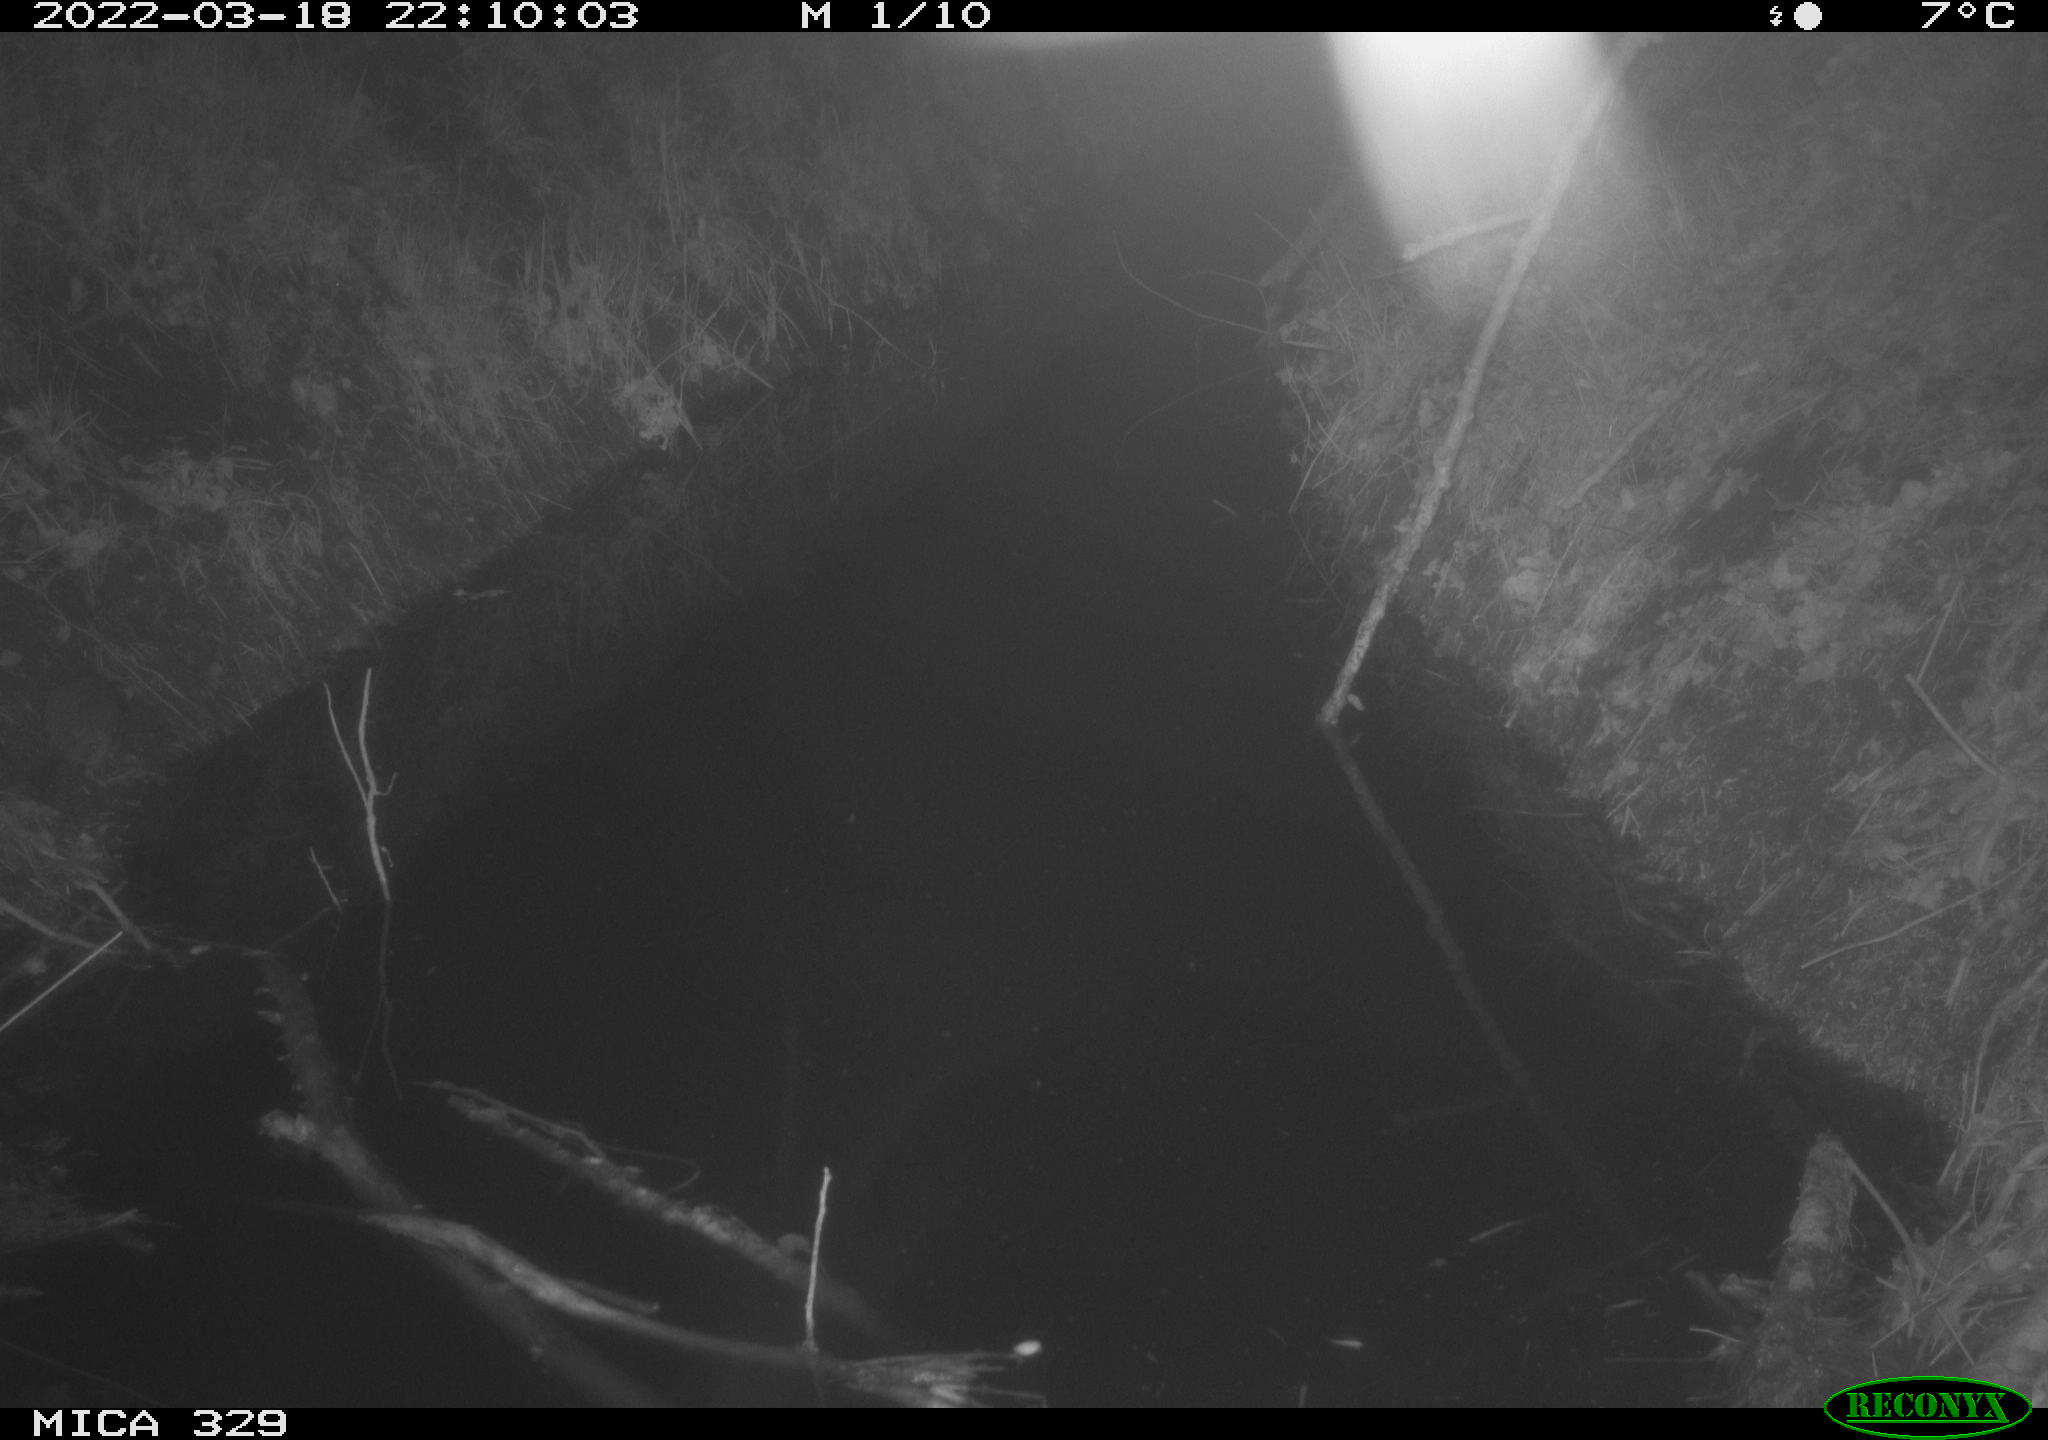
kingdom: Animalia
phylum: Chordata
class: Mammalia
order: Rodentia
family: Muridae
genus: Rattus
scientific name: Rattus norvegicus
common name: Brown rat
